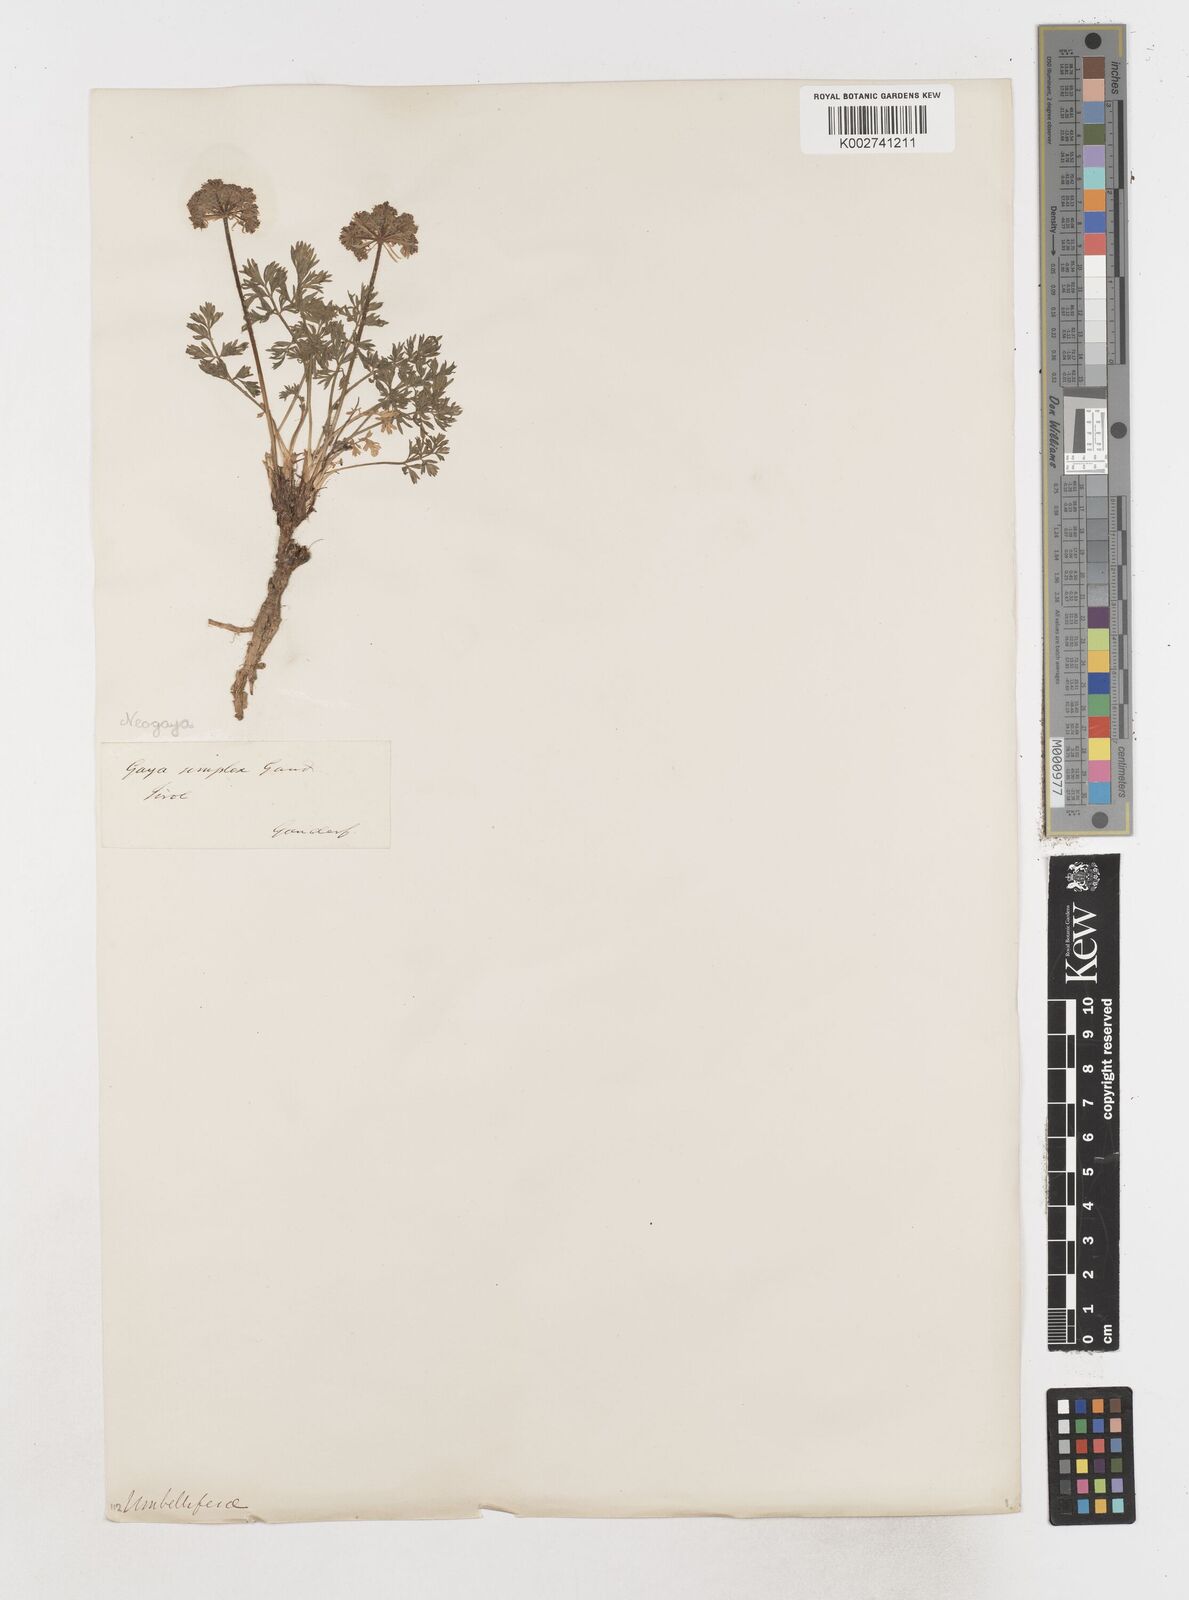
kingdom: Plantae
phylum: Tracheophyta
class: Magnoliopsida
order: Apiales
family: Apiaceae
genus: Pachypleurum
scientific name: Pachypleurum mutellinoides
